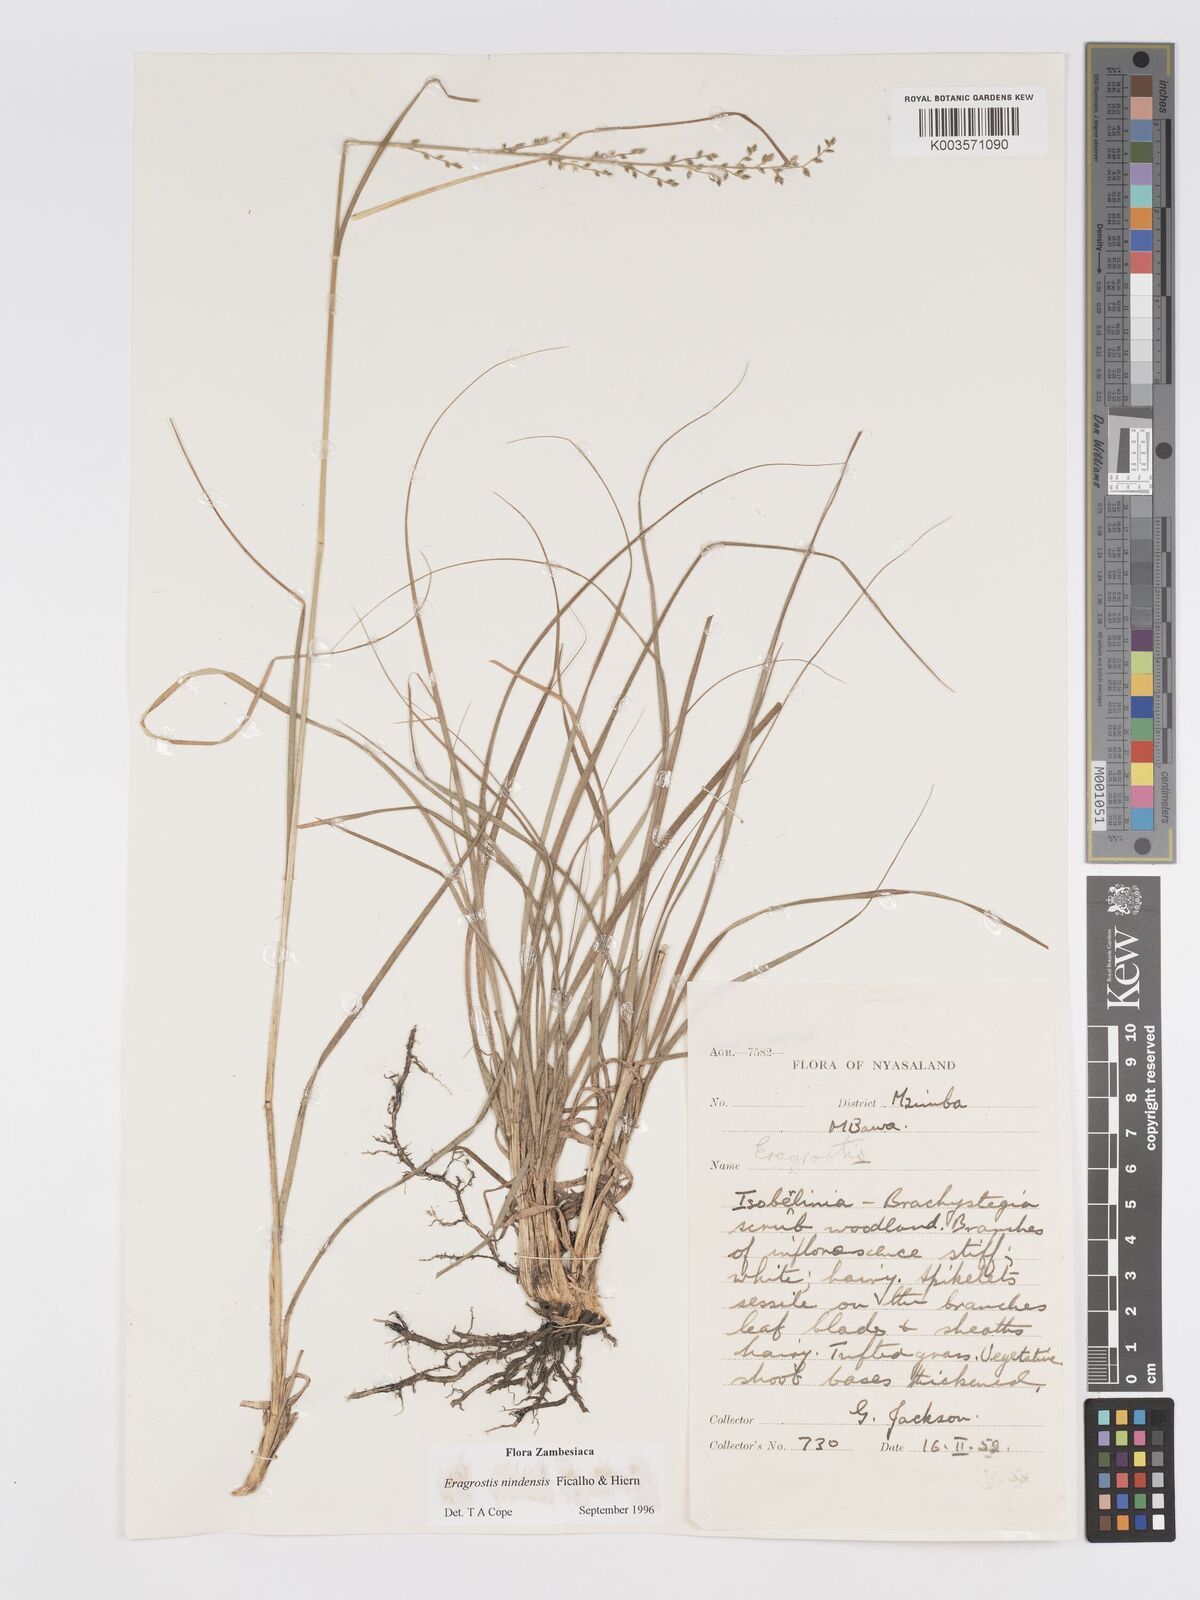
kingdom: Plantae
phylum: Tracheophyta
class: Liliopsida
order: Poales
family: Poaceae
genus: Eragrostis
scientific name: Eragrostis nindensis
